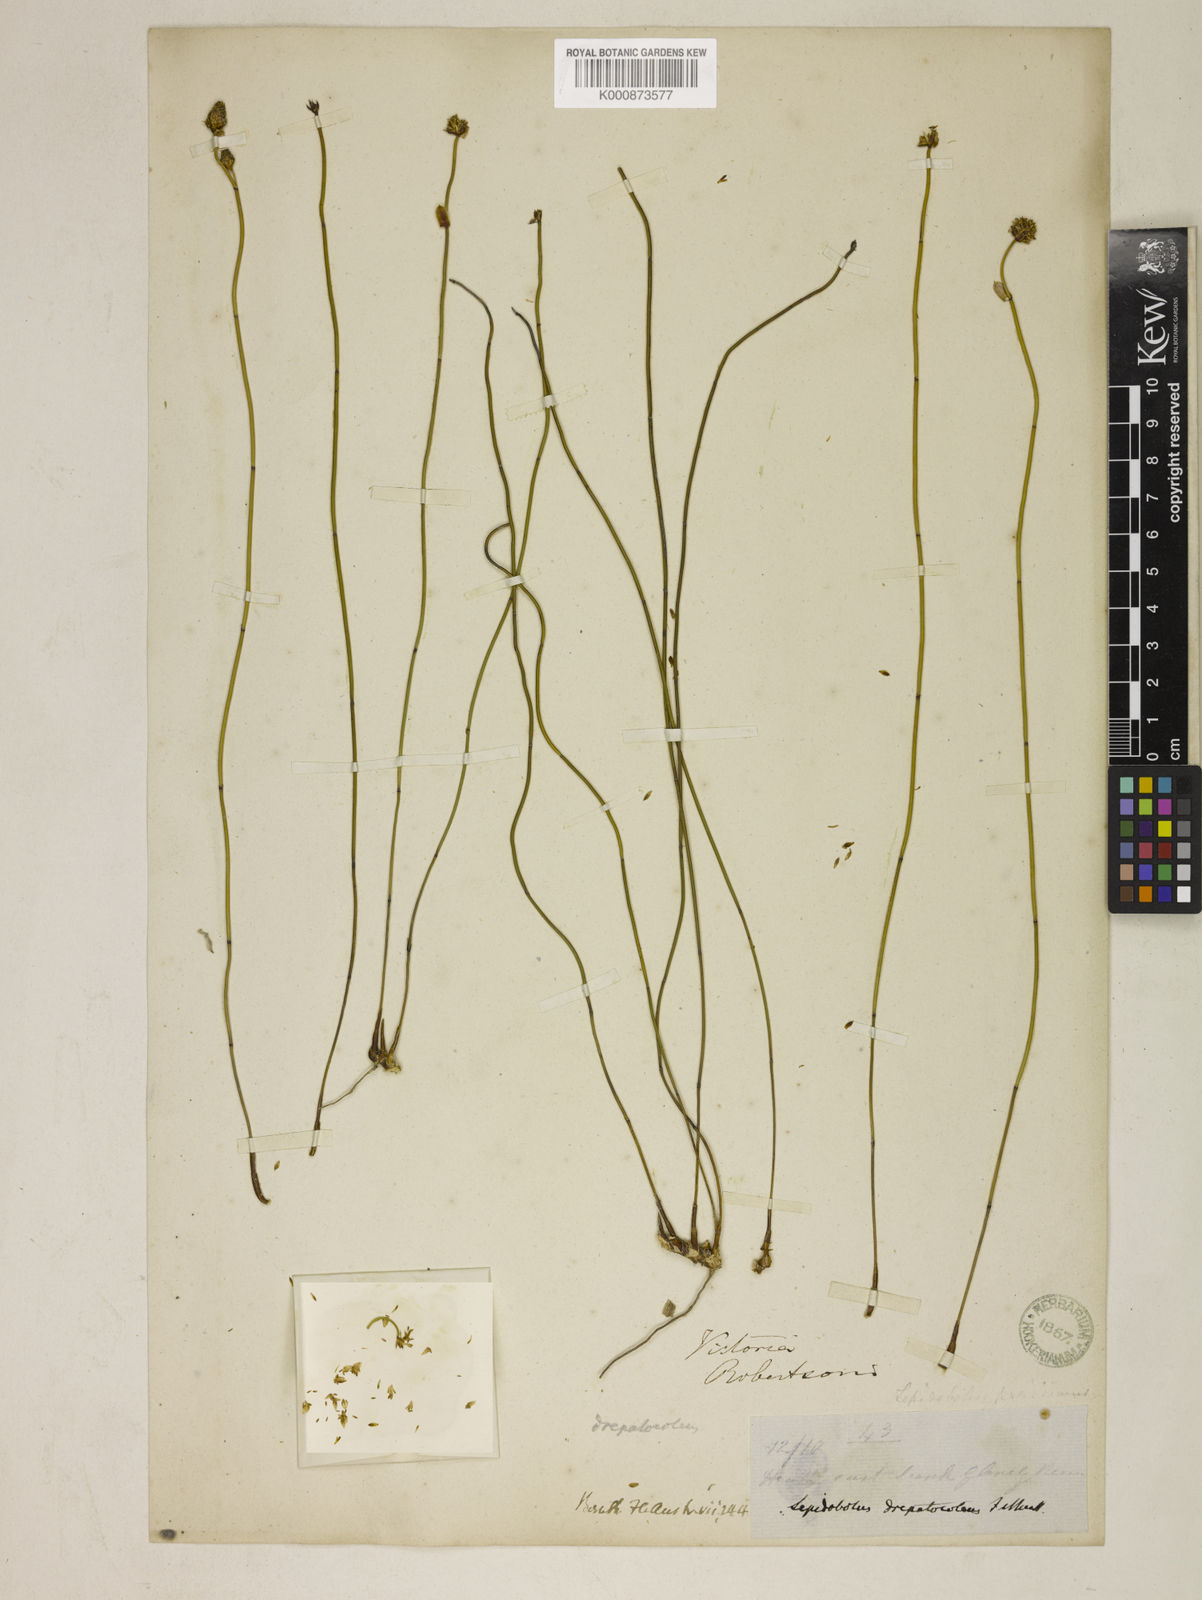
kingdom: Plantae
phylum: Tracheophyta
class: Liliopsida
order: Poales
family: Restionaceae
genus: Lepidobolus
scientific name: Lepidobolus drapetocoleus
